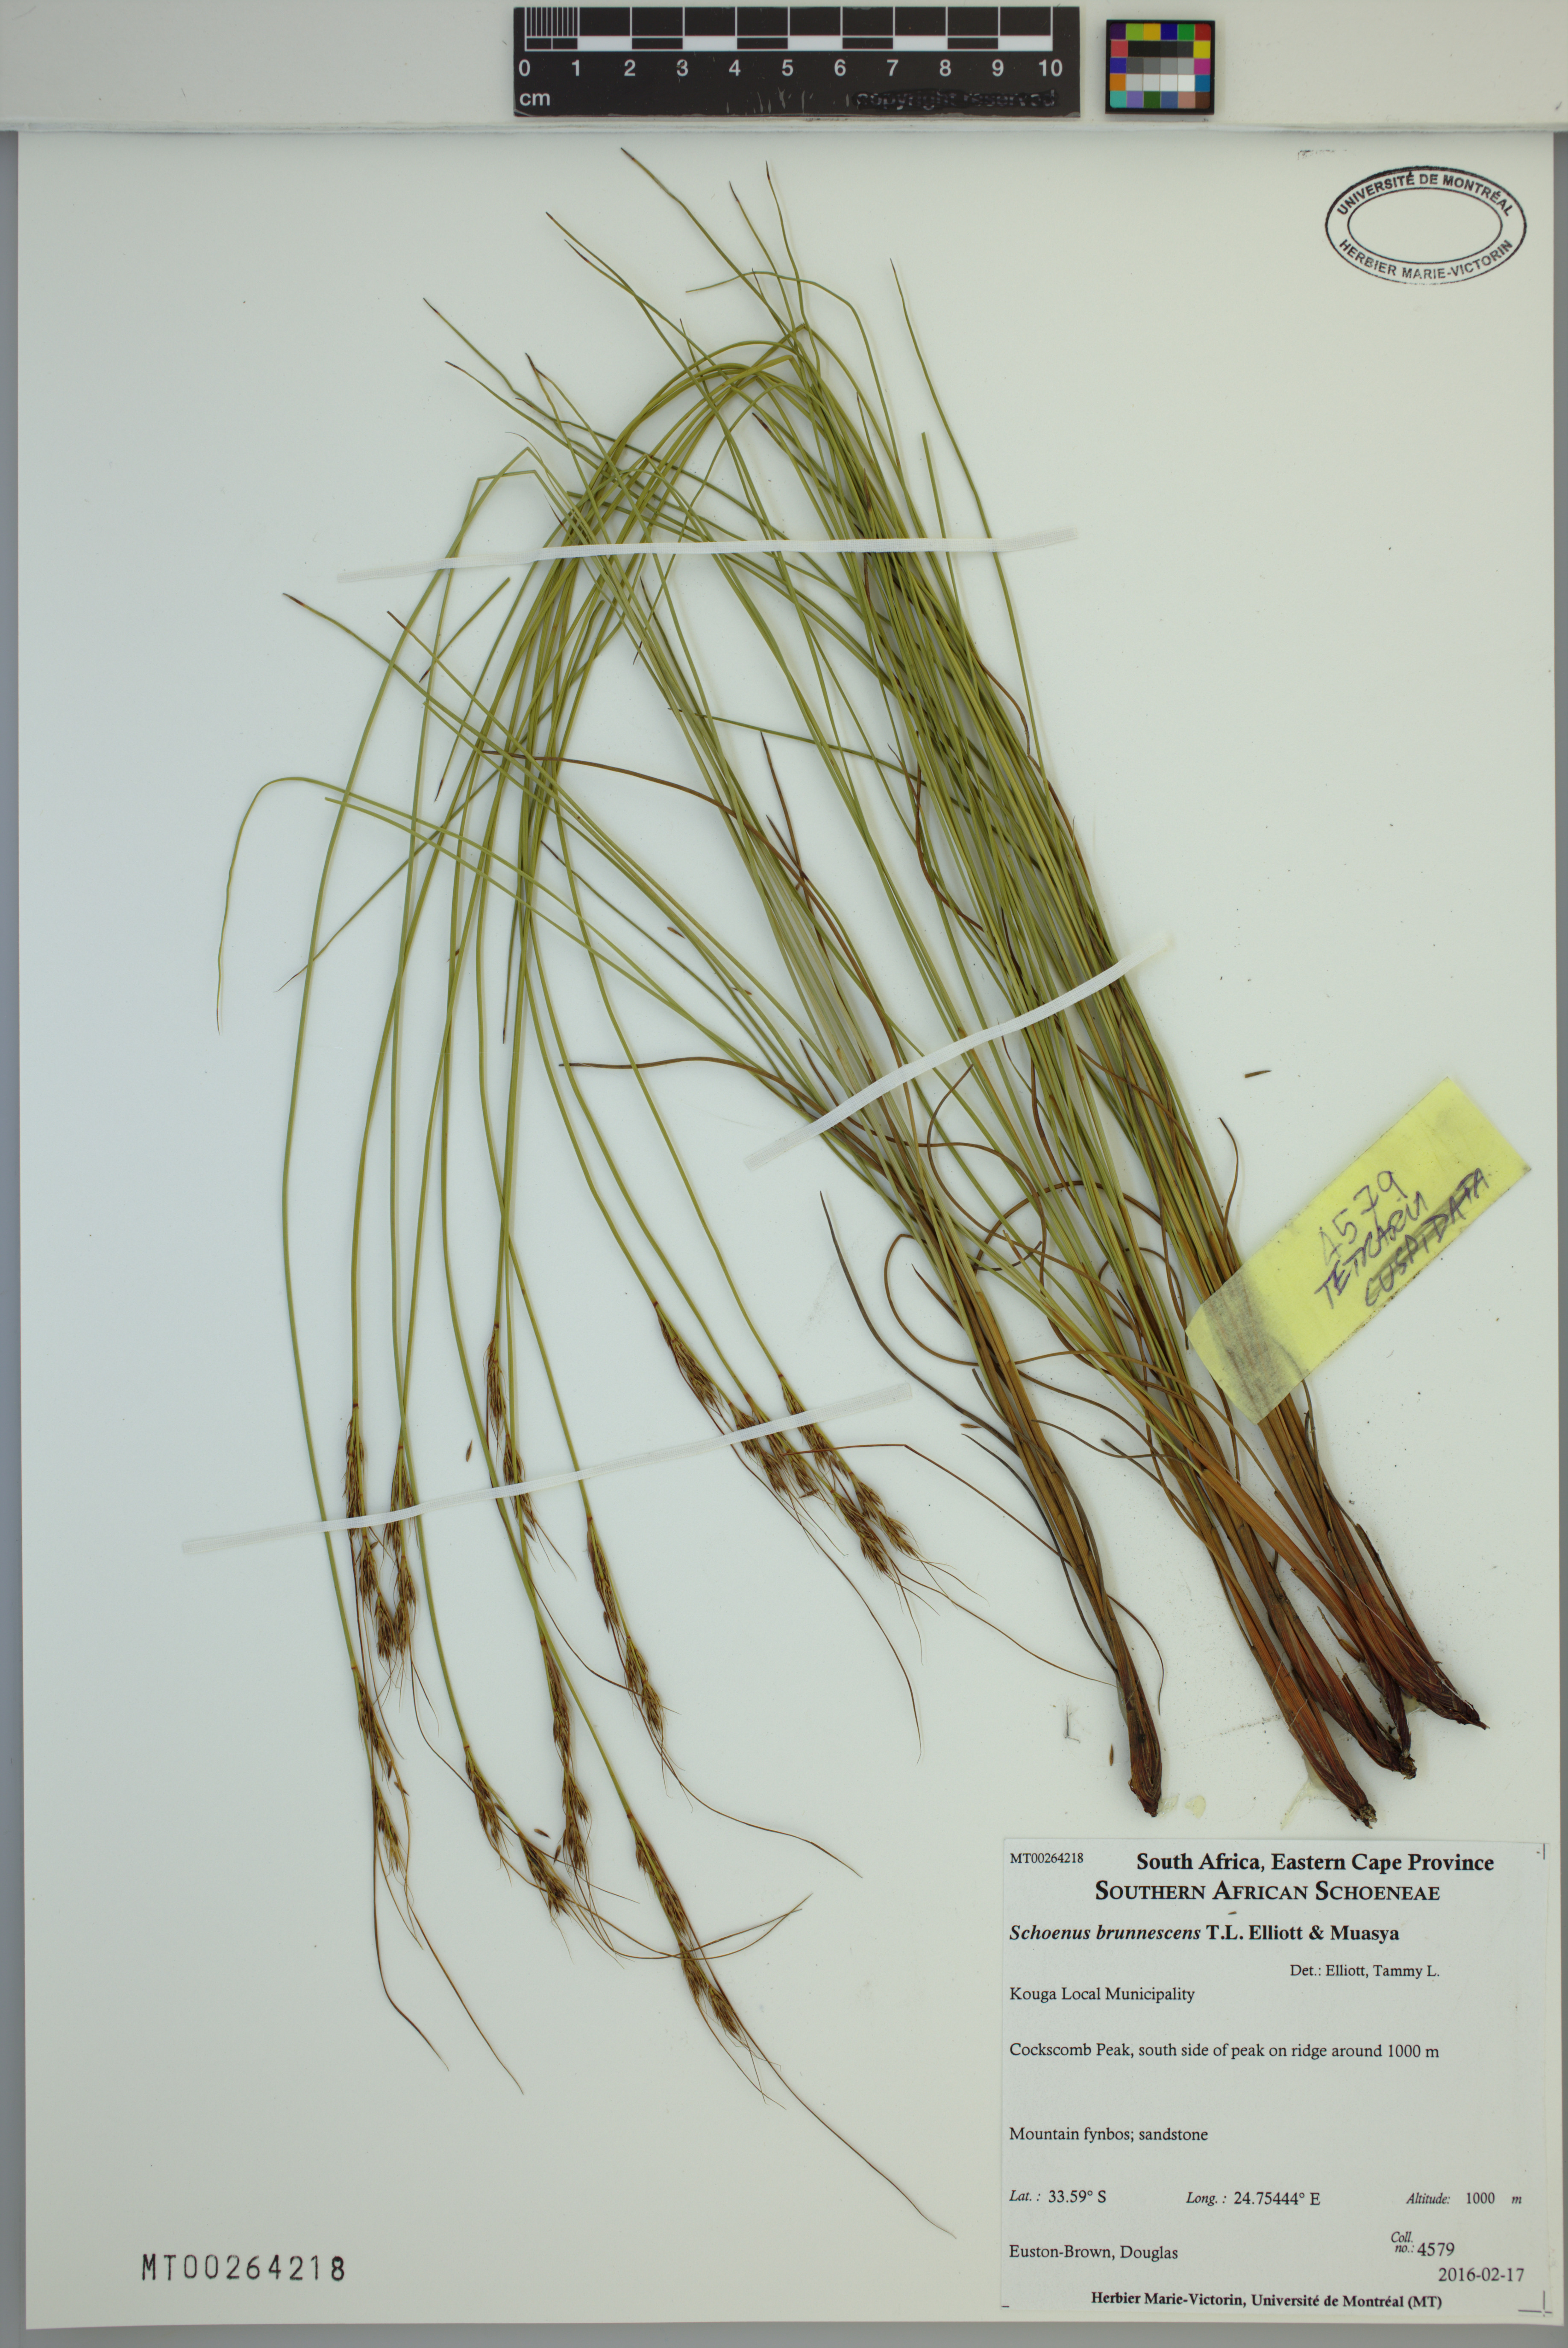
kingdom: Plantae
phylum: Tracheophyta
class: Liliopsida
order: Poales
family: Cyperaceae
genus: Schoenus
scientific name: Schoenus brunnescens
